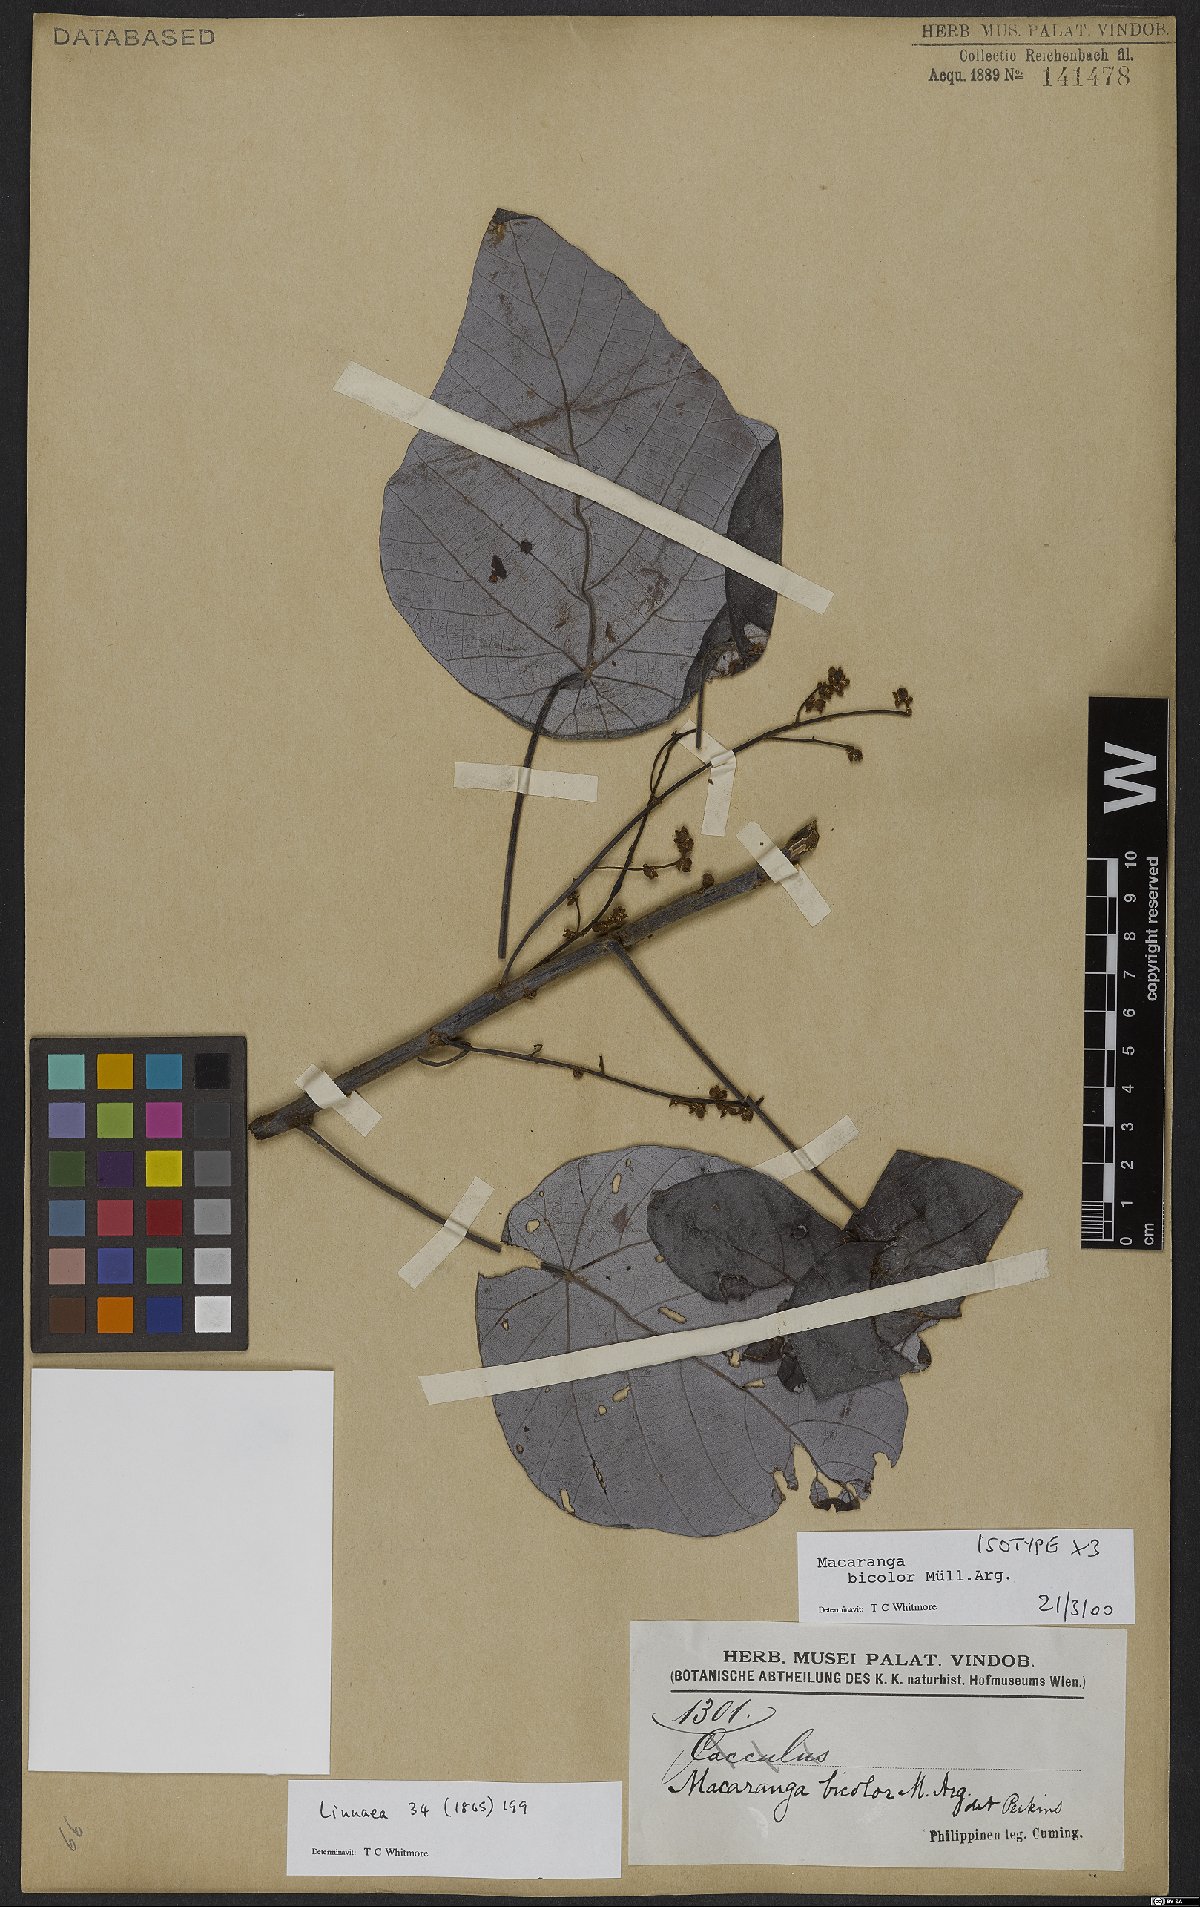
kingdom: Plantae
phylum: Tracheophyta
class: Magnoliopsida
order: Malpighiales
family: Euphorbiaceae
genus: Macaranga
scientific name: Macaranga bicolor
